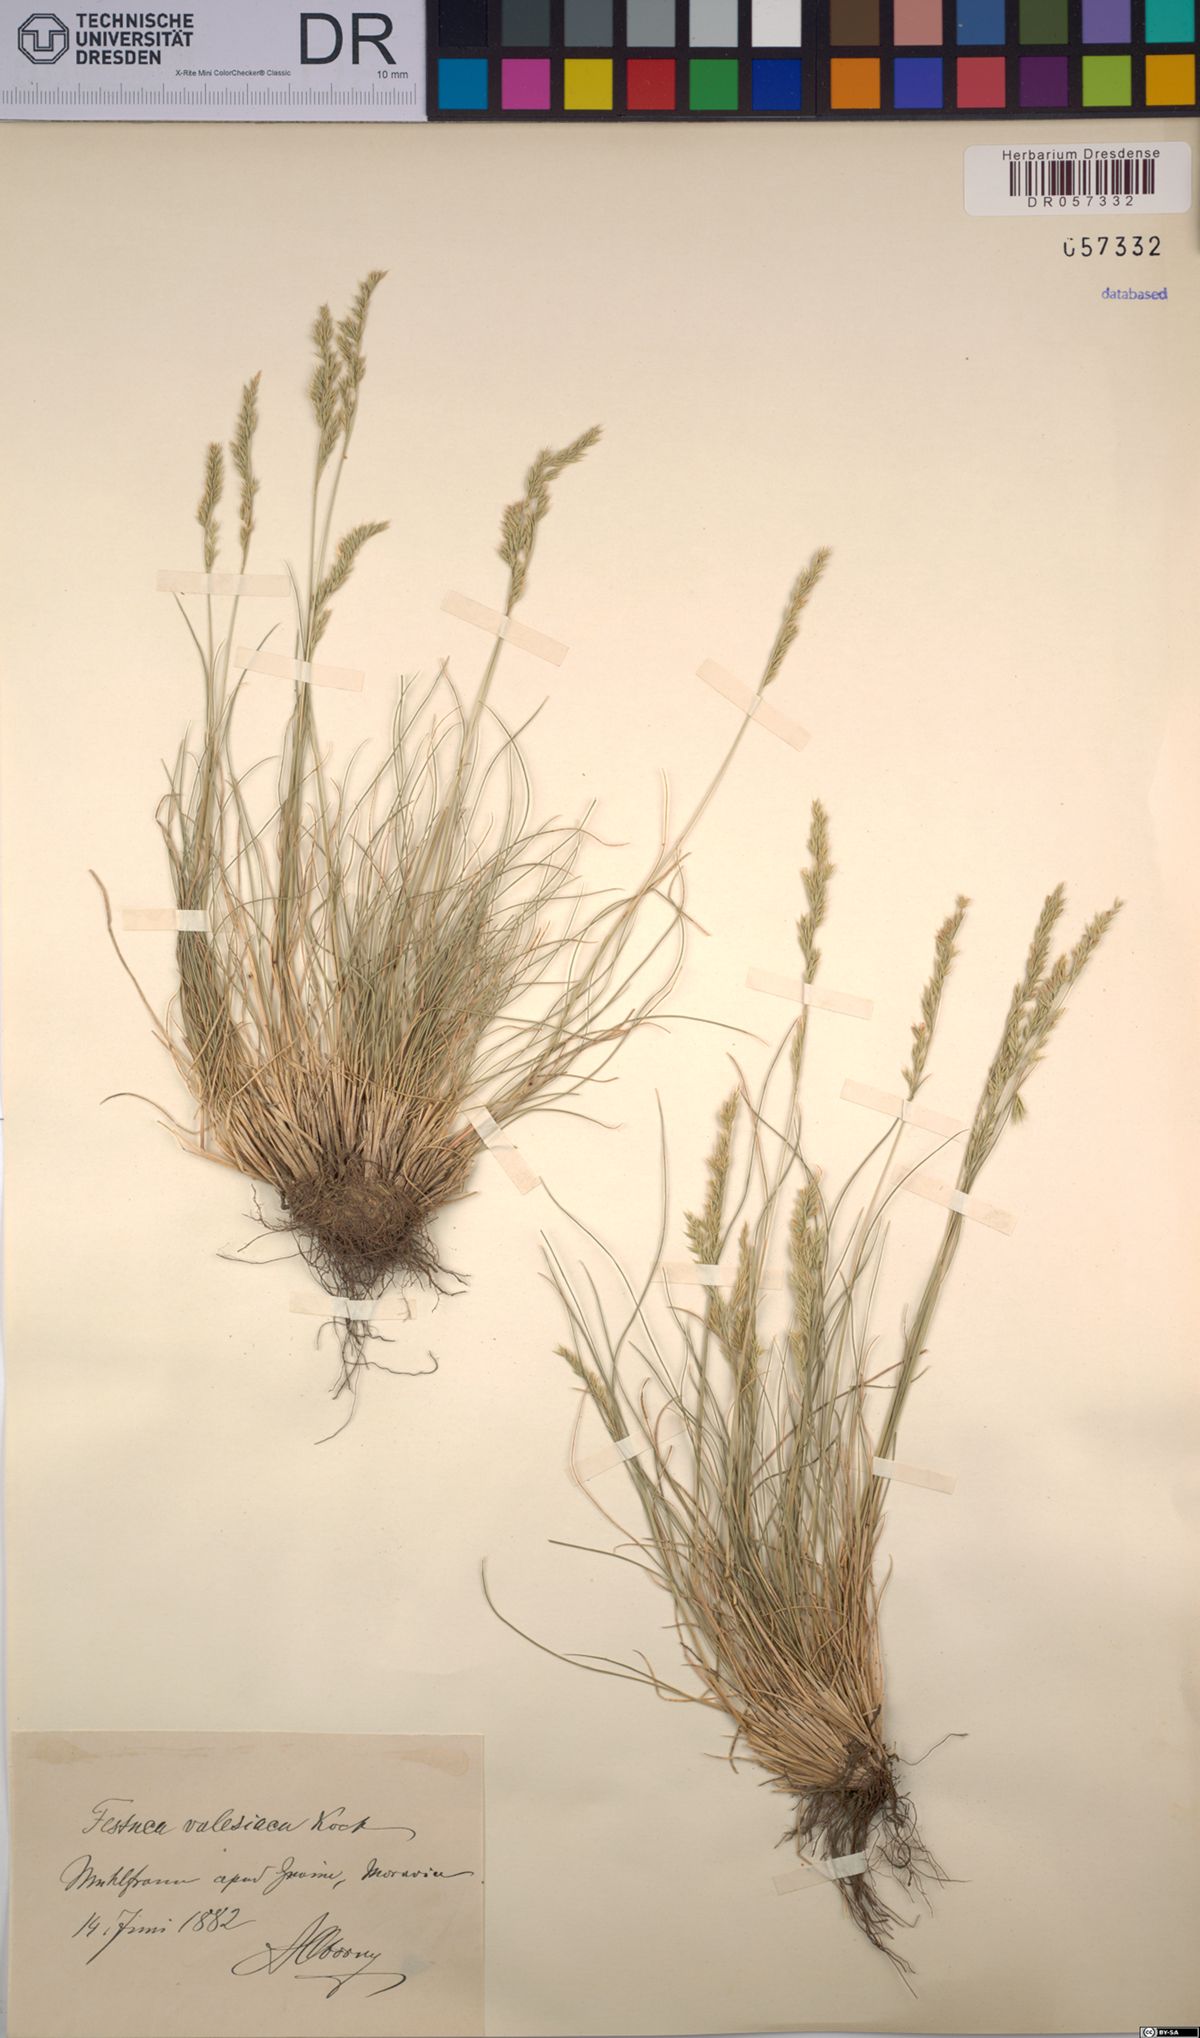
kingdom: Plantae
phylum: Tracheophyta
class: Liliopsida
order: Poales
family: Poaceae
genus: Festuca
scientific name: Festuca valesiaca
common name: Volga fescue
